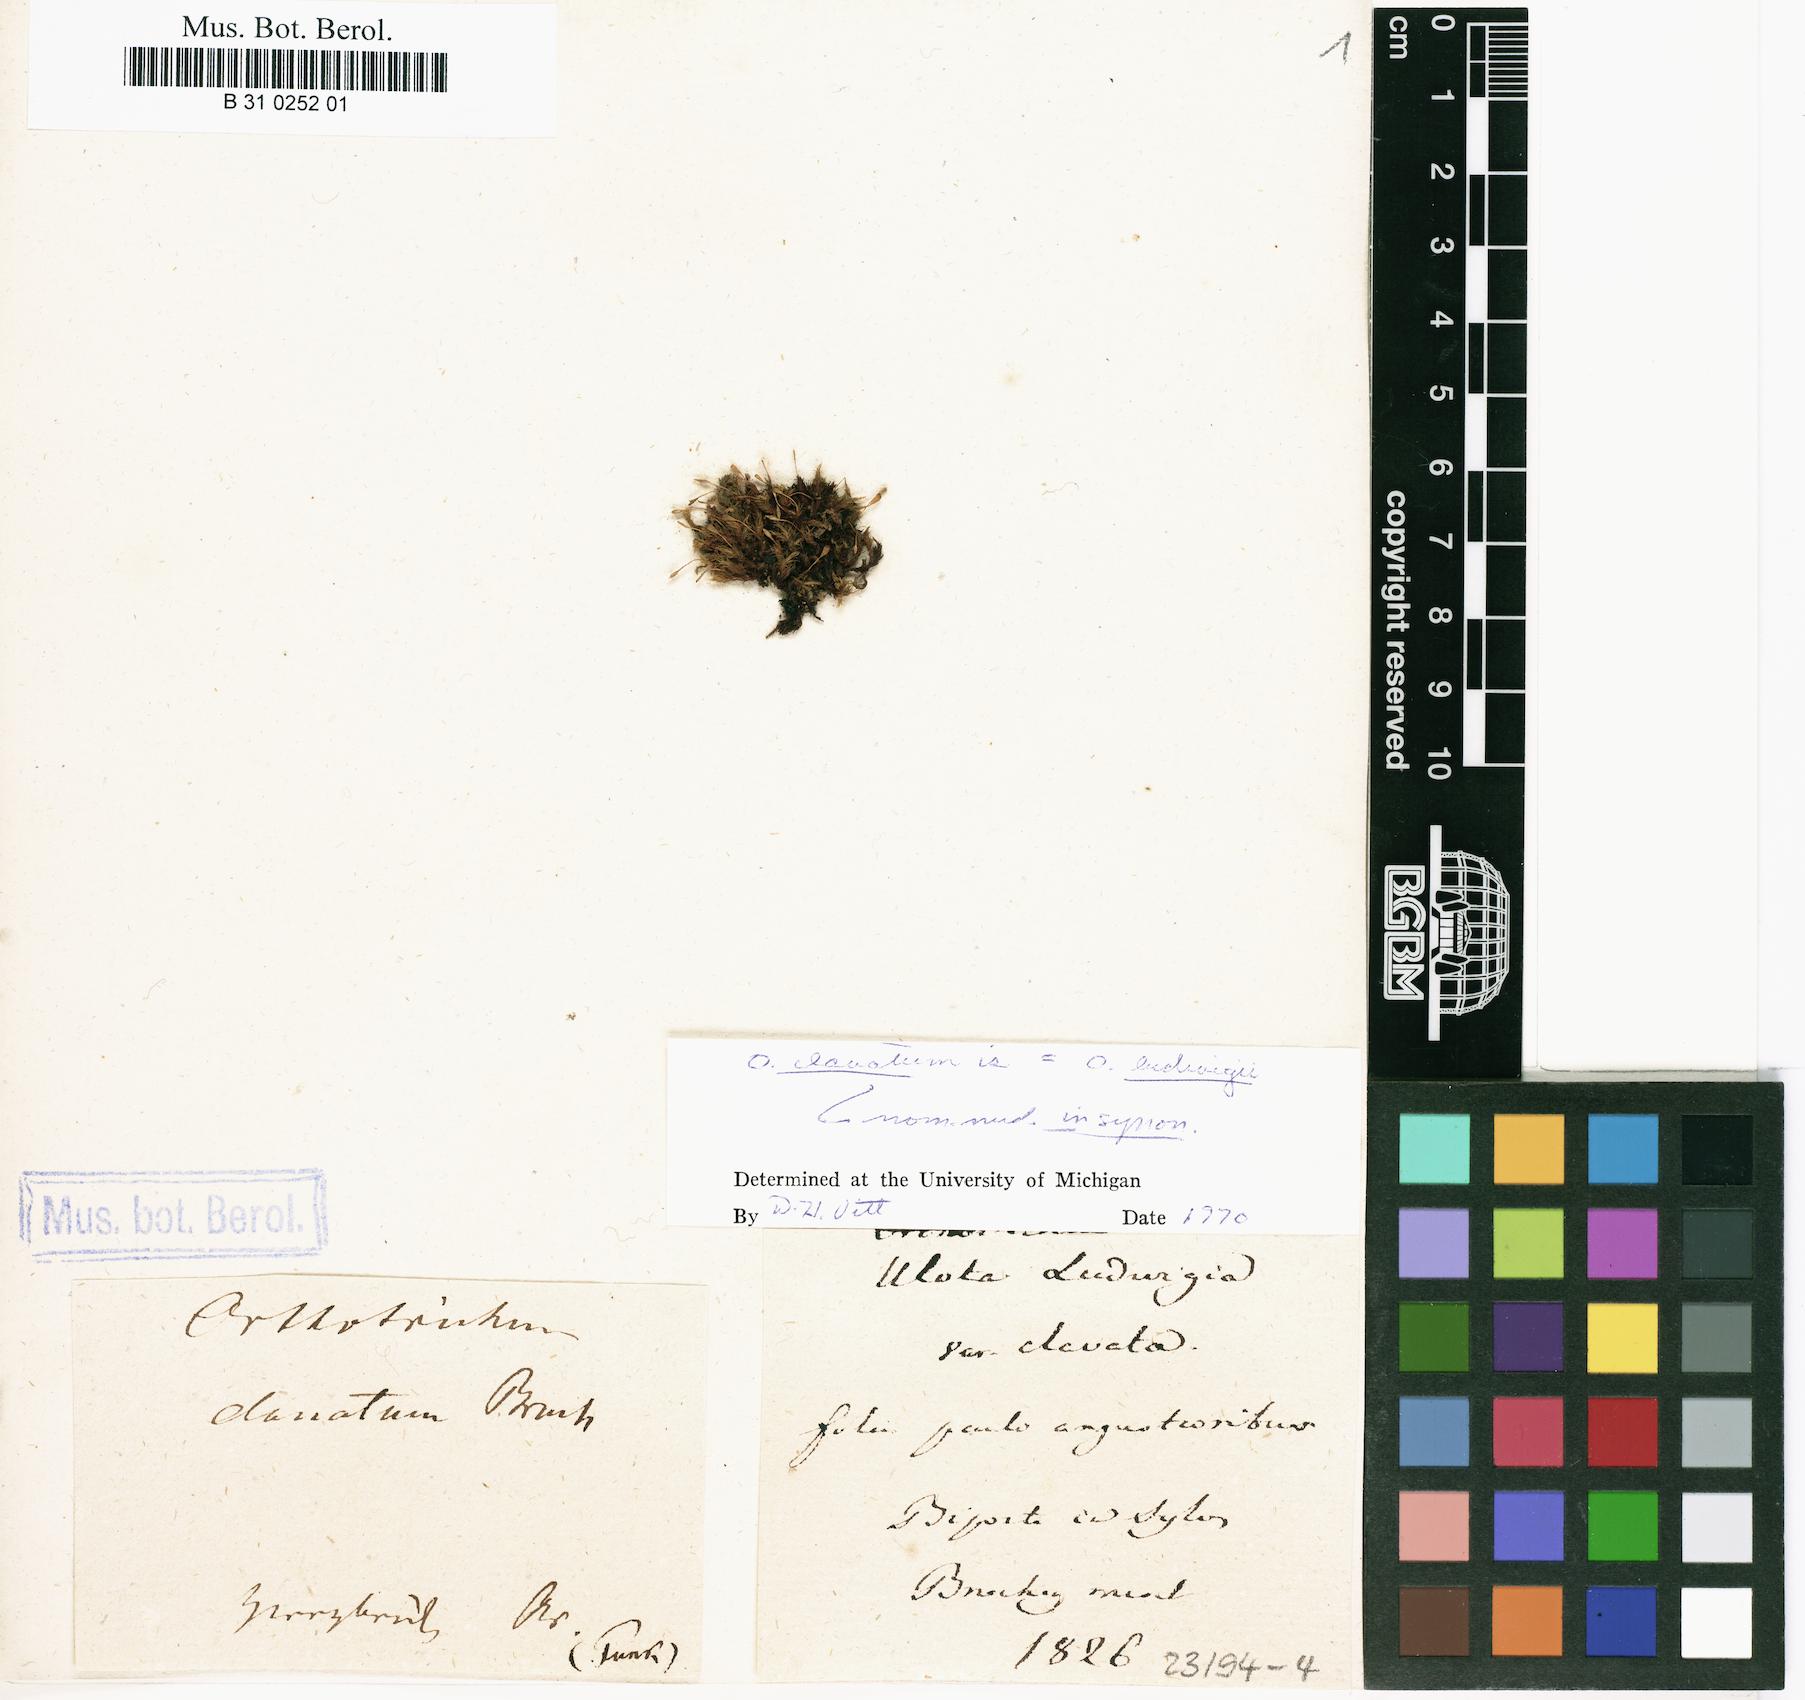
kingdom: Plantae
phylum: Bryophyta
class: Bryopsida
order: Orthotrichales
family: Orthotrichaceae
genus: Ulota
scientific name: Ulota coarctata
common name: Club pincushion moss
